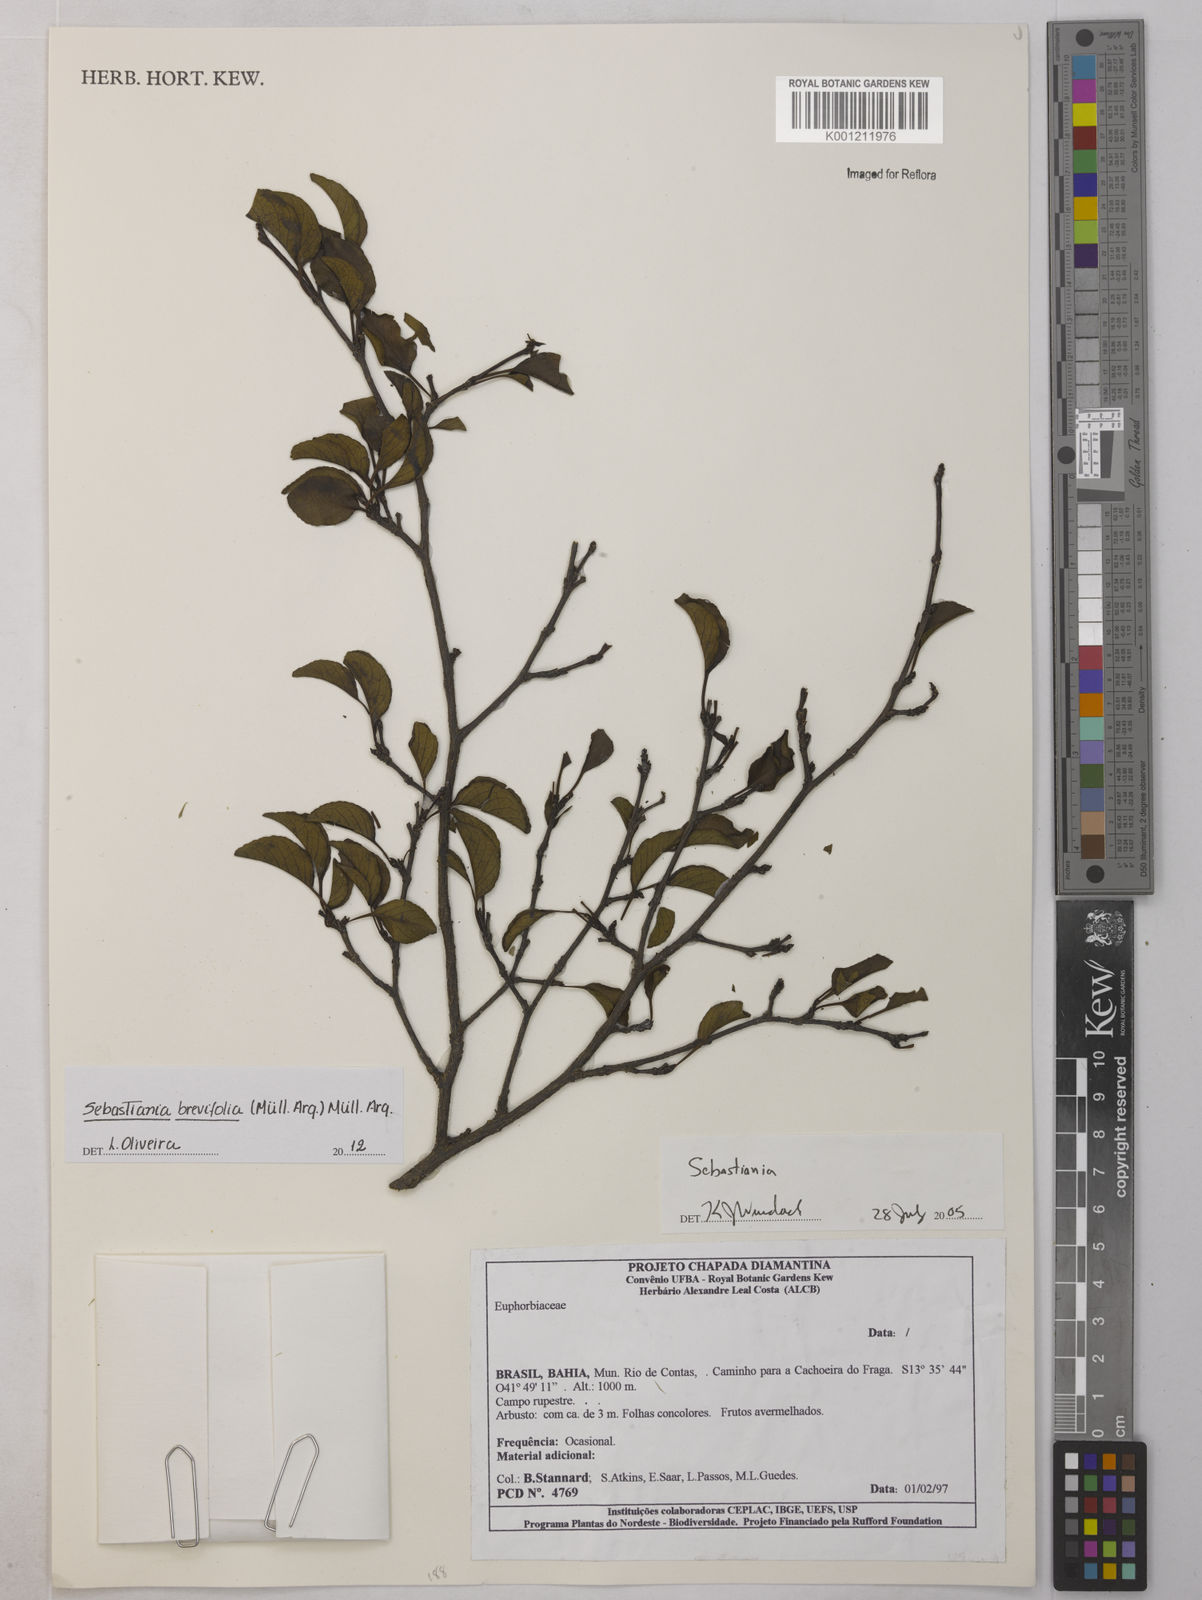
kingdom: Plantae
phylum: Tracheophyta
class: Magnoliopsida
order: Malpighiales
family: Euphorbiaceae
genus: Sebastiania
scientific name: Sebastiania
